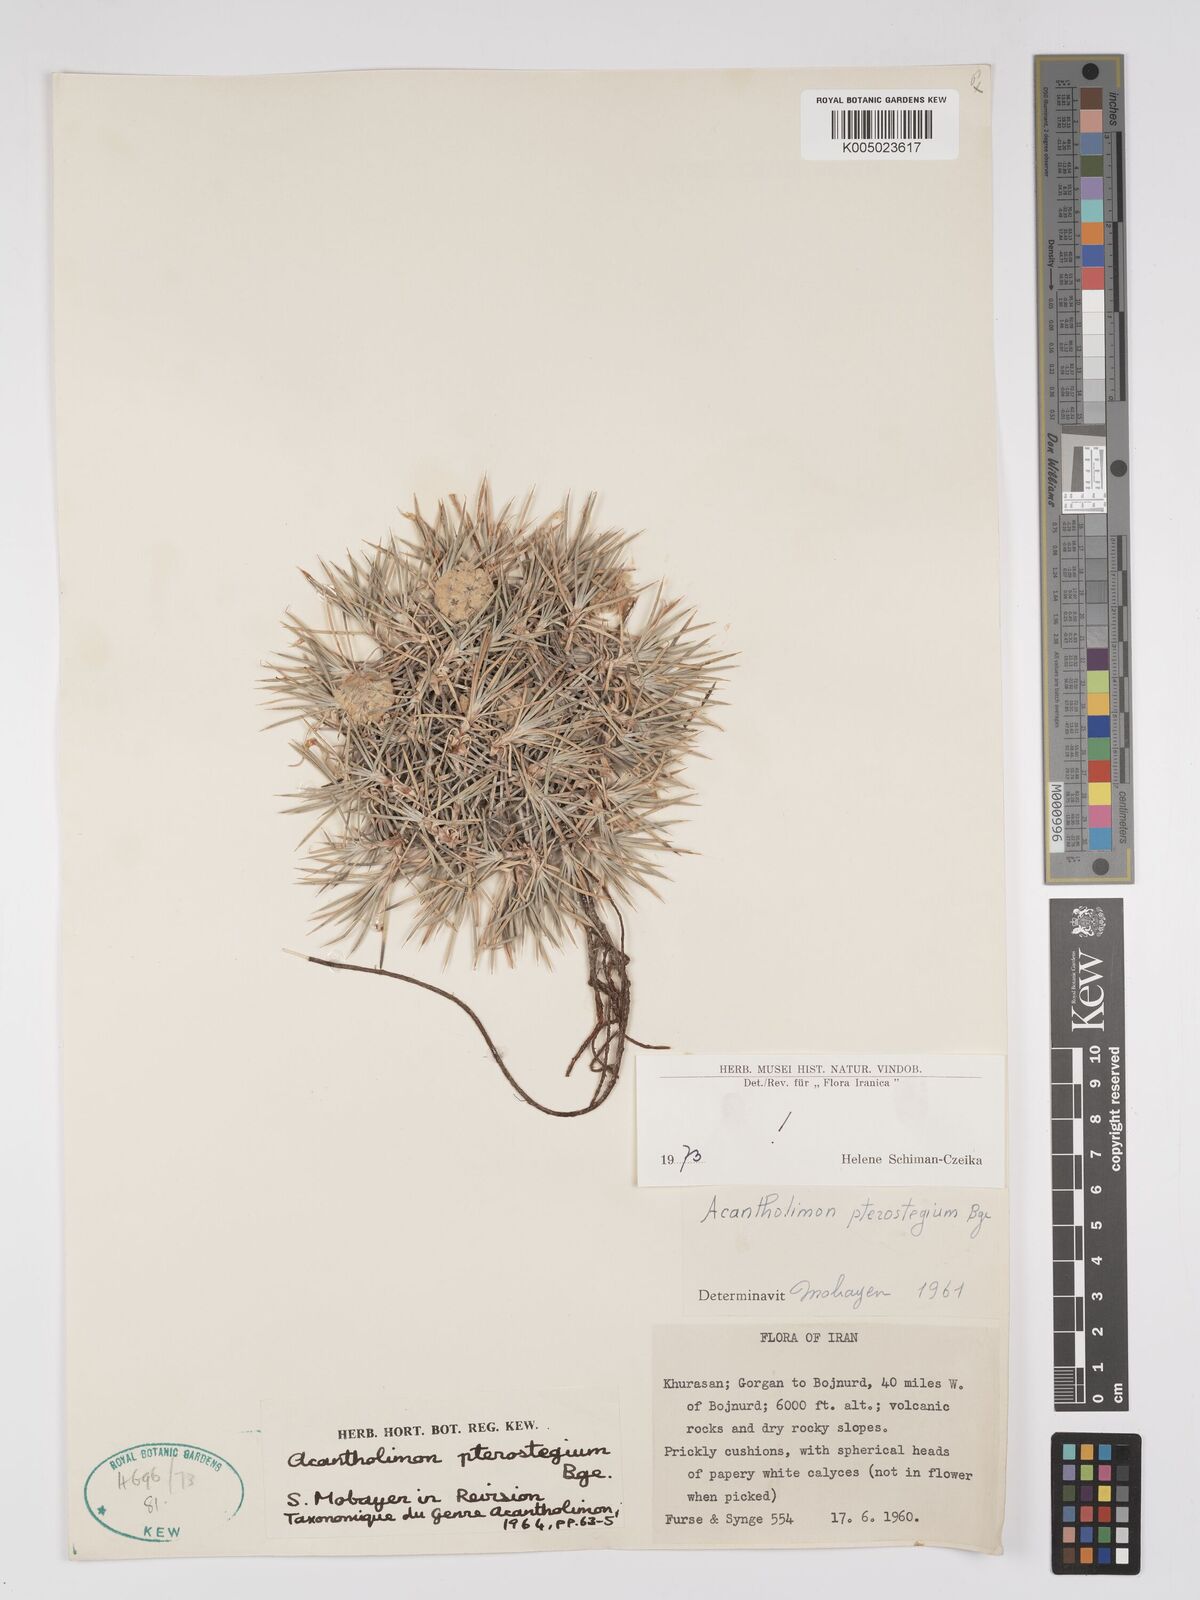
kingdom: Plantae
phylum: Tracheophyta
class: Magnoliopsida
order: Caryophyllales
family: Plumbaginaceae
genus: Acantholimon
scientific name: Acantholimon pterostegium
